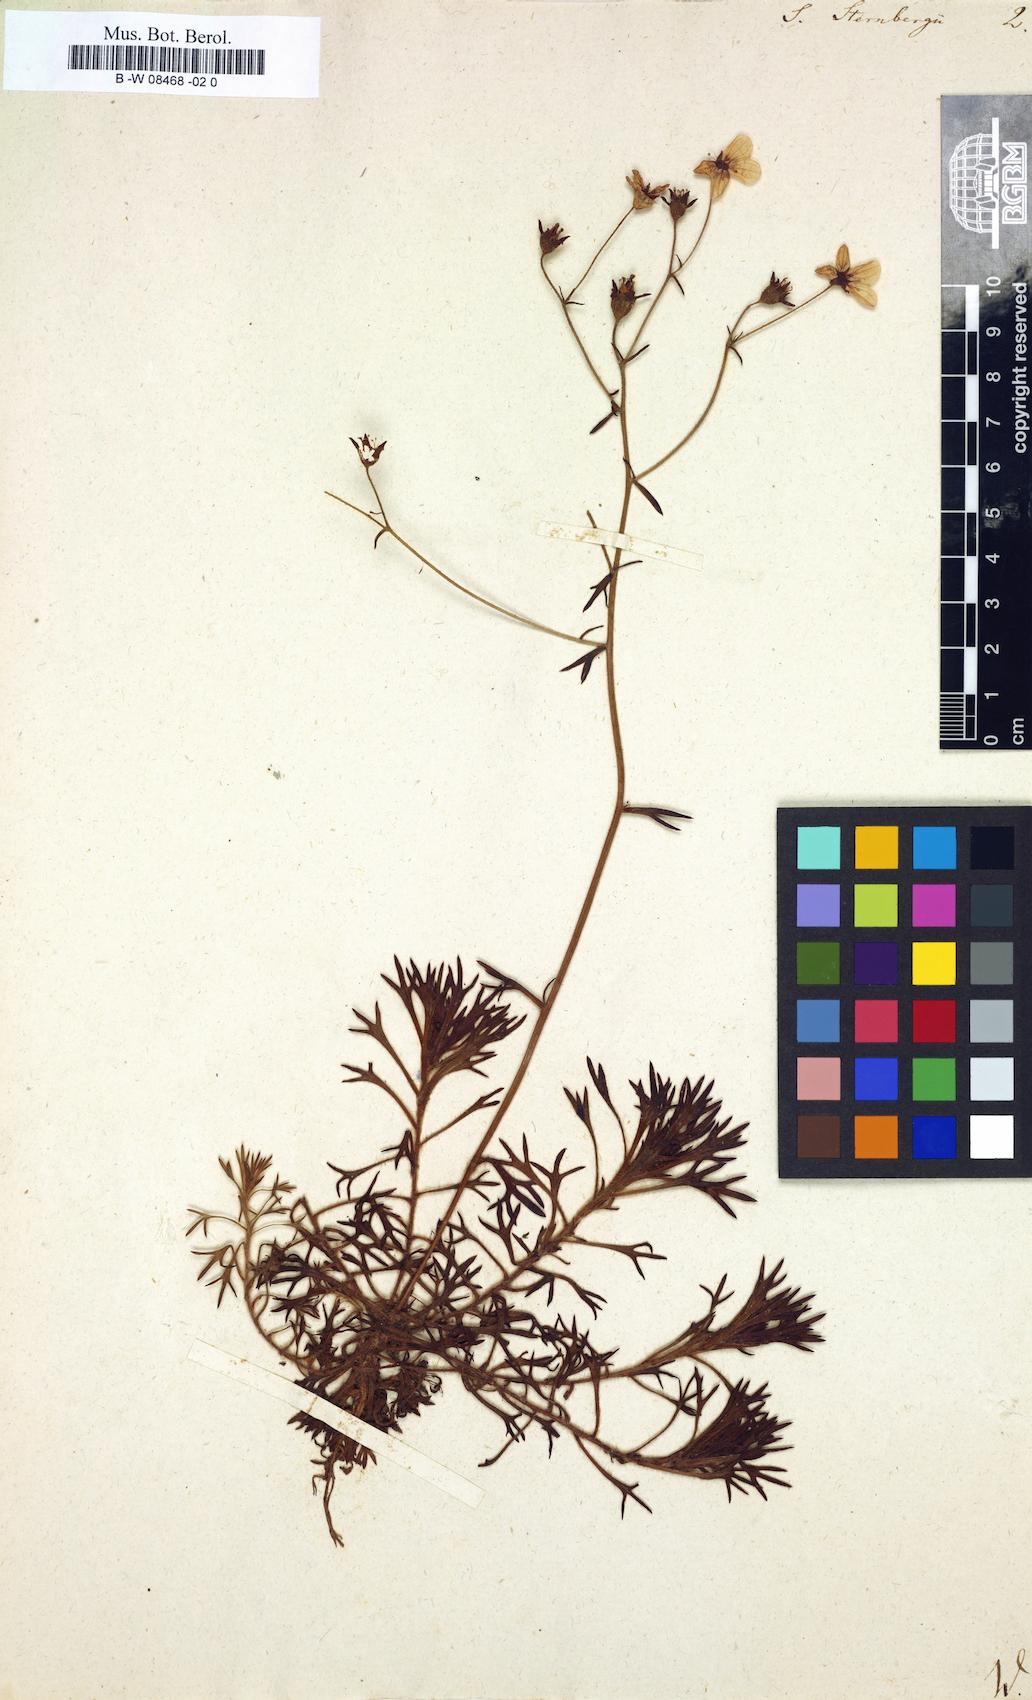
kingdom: Plantae
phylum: Tracheophyta
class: Magnoliopsida
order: Saxifragales
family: Saxifragaceae
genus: Saxifraga
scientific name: Saxifraga rosacea
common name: Irish saxifrage
